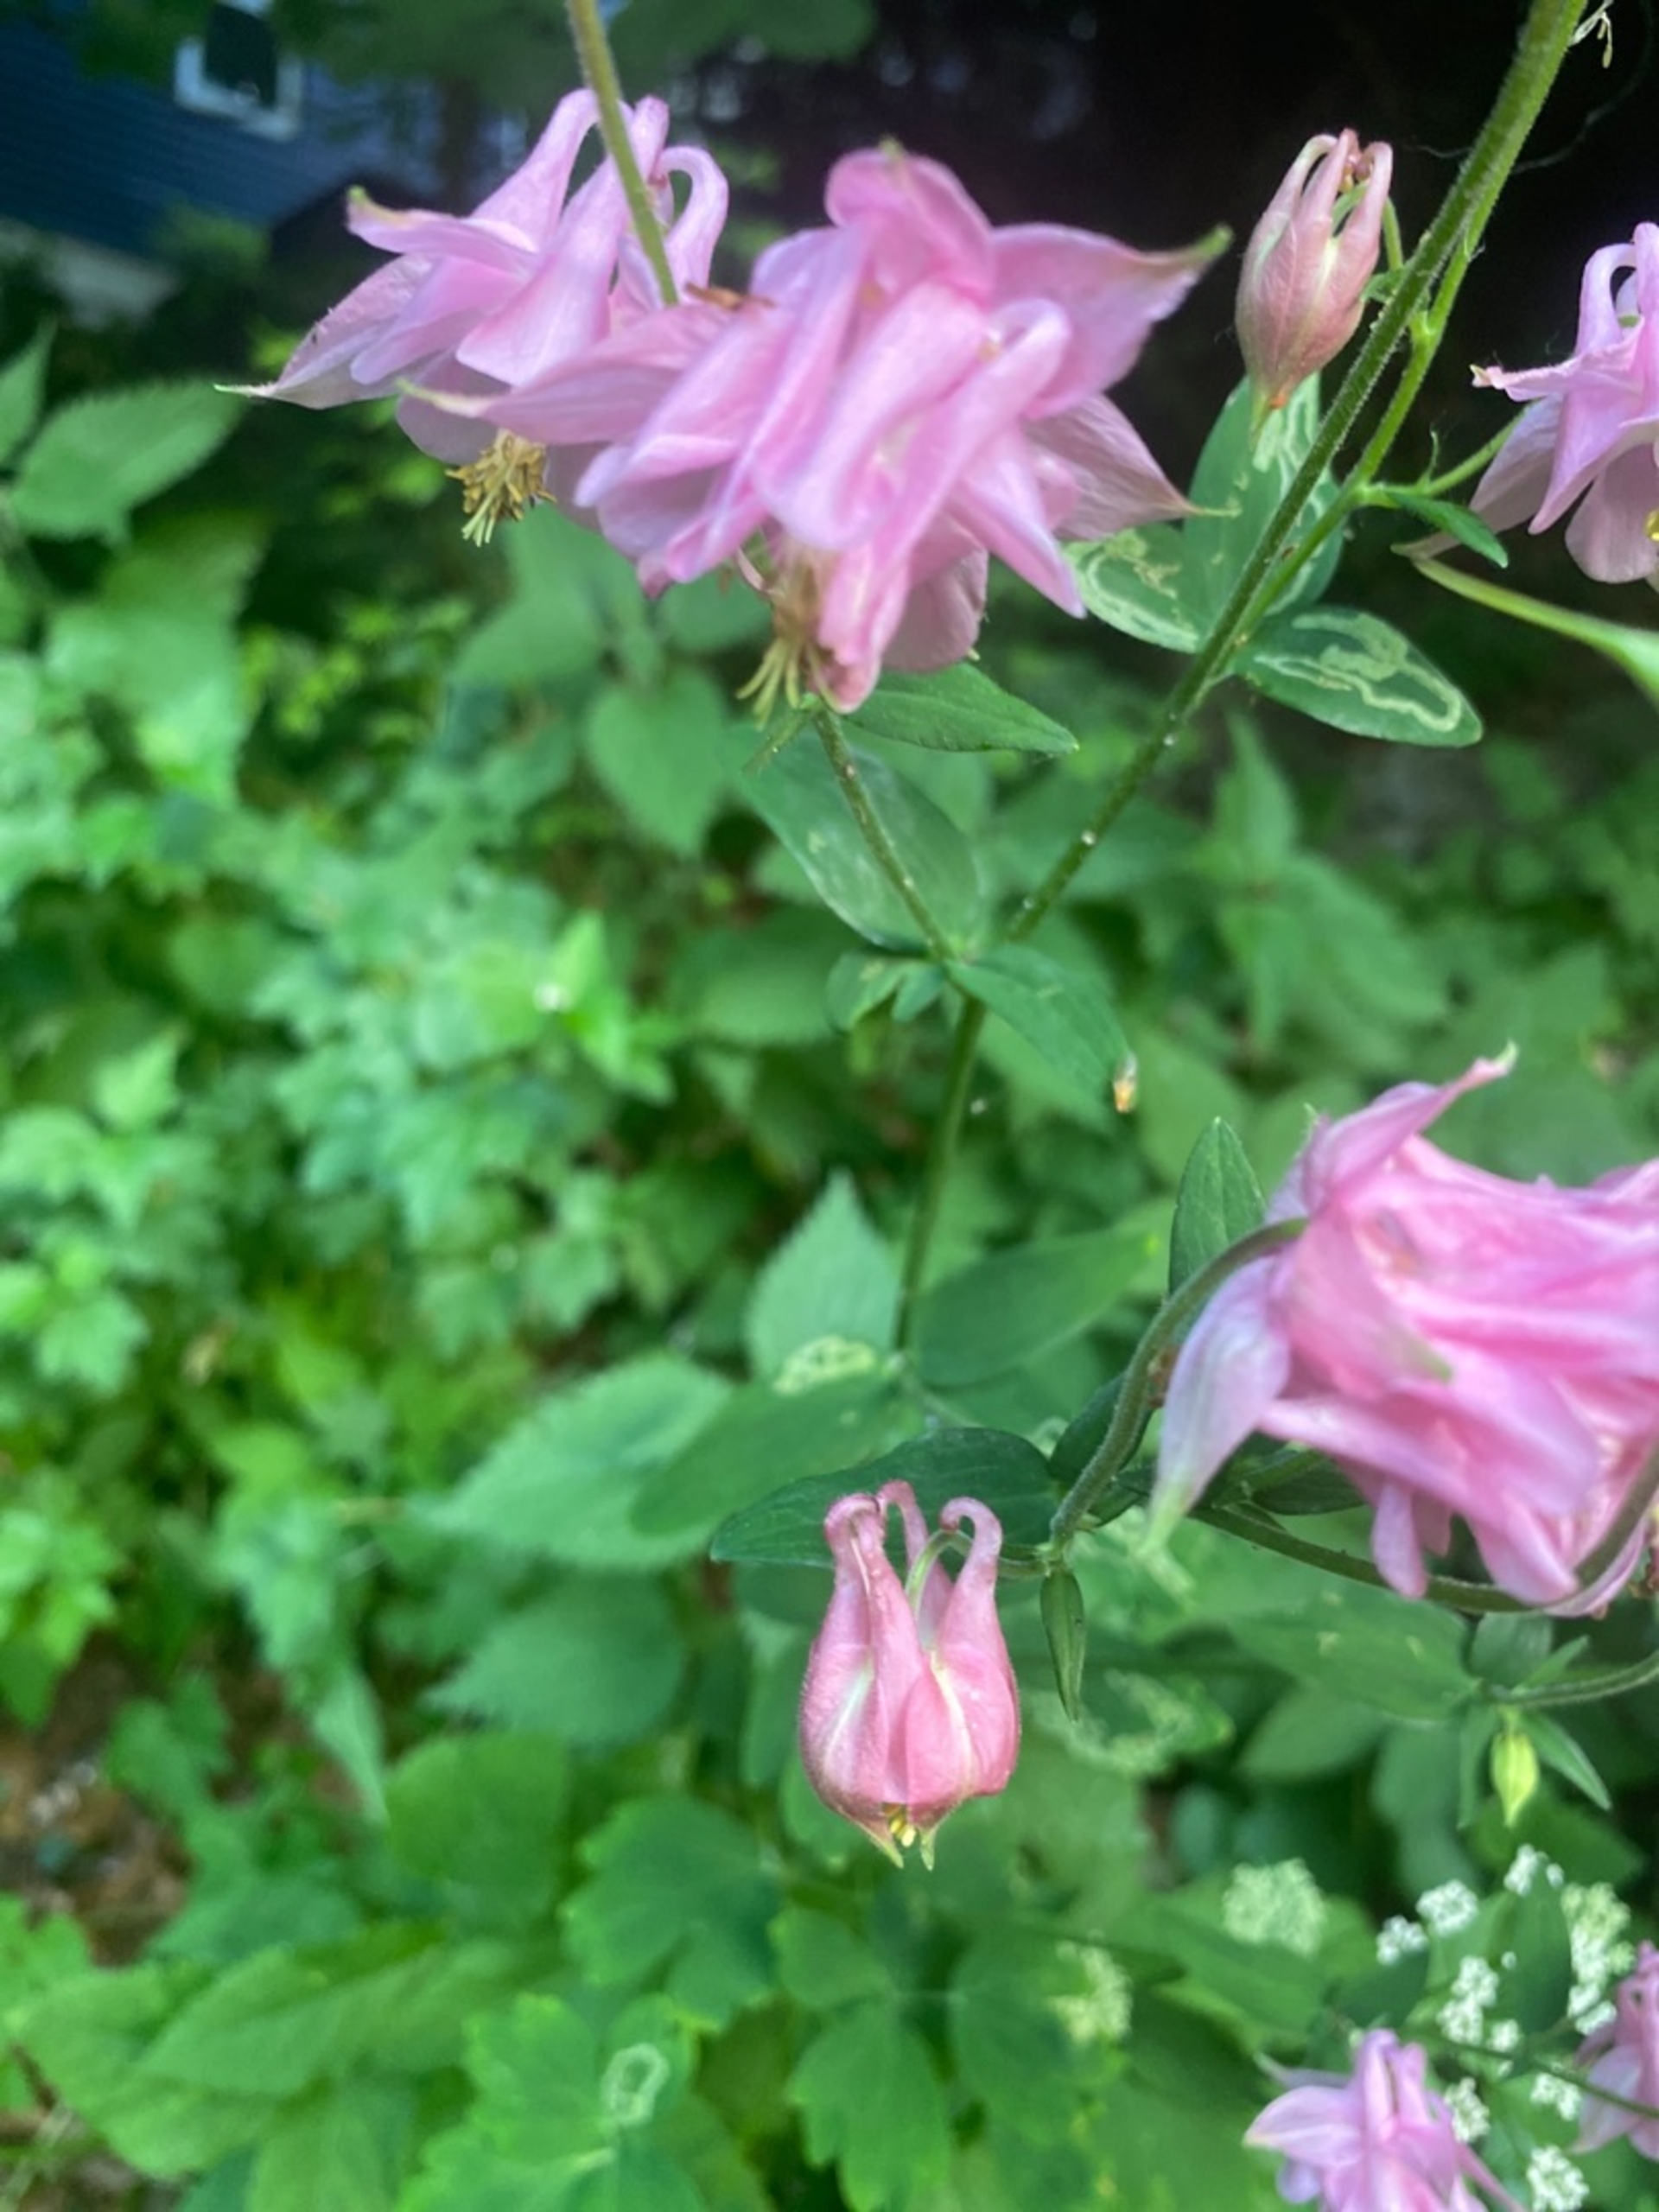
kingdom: Plantae
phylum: Tracheophyta
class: Magnoliopsida
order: Ranunculales
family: Ranunculaceae
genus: Aquilegia
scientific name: Aquilegia vulgaris
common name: Akeleje
